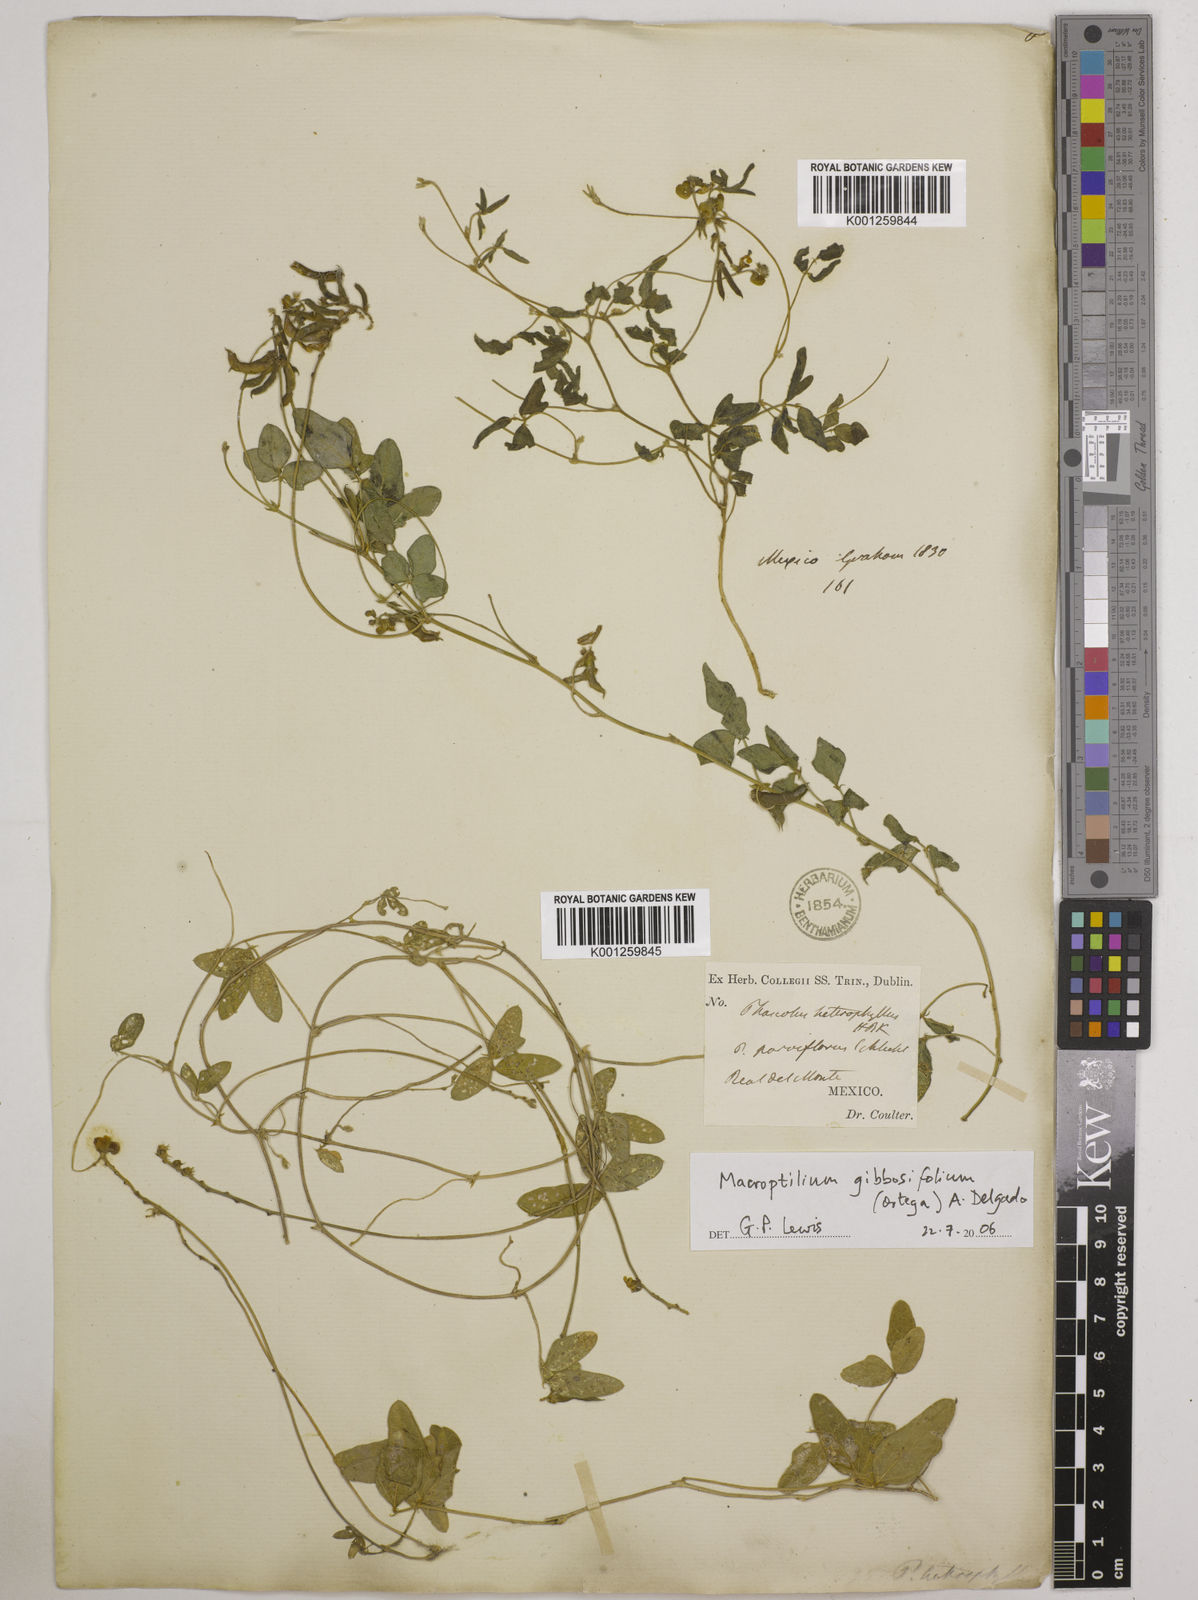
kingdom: Plantae
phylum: Tracheophyta
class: Magnoliopsida
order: Fabales
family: Fabaceae
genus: Macroptilium
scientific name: Macroptilium gibbosifolium
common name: Variableleaf bushbean
